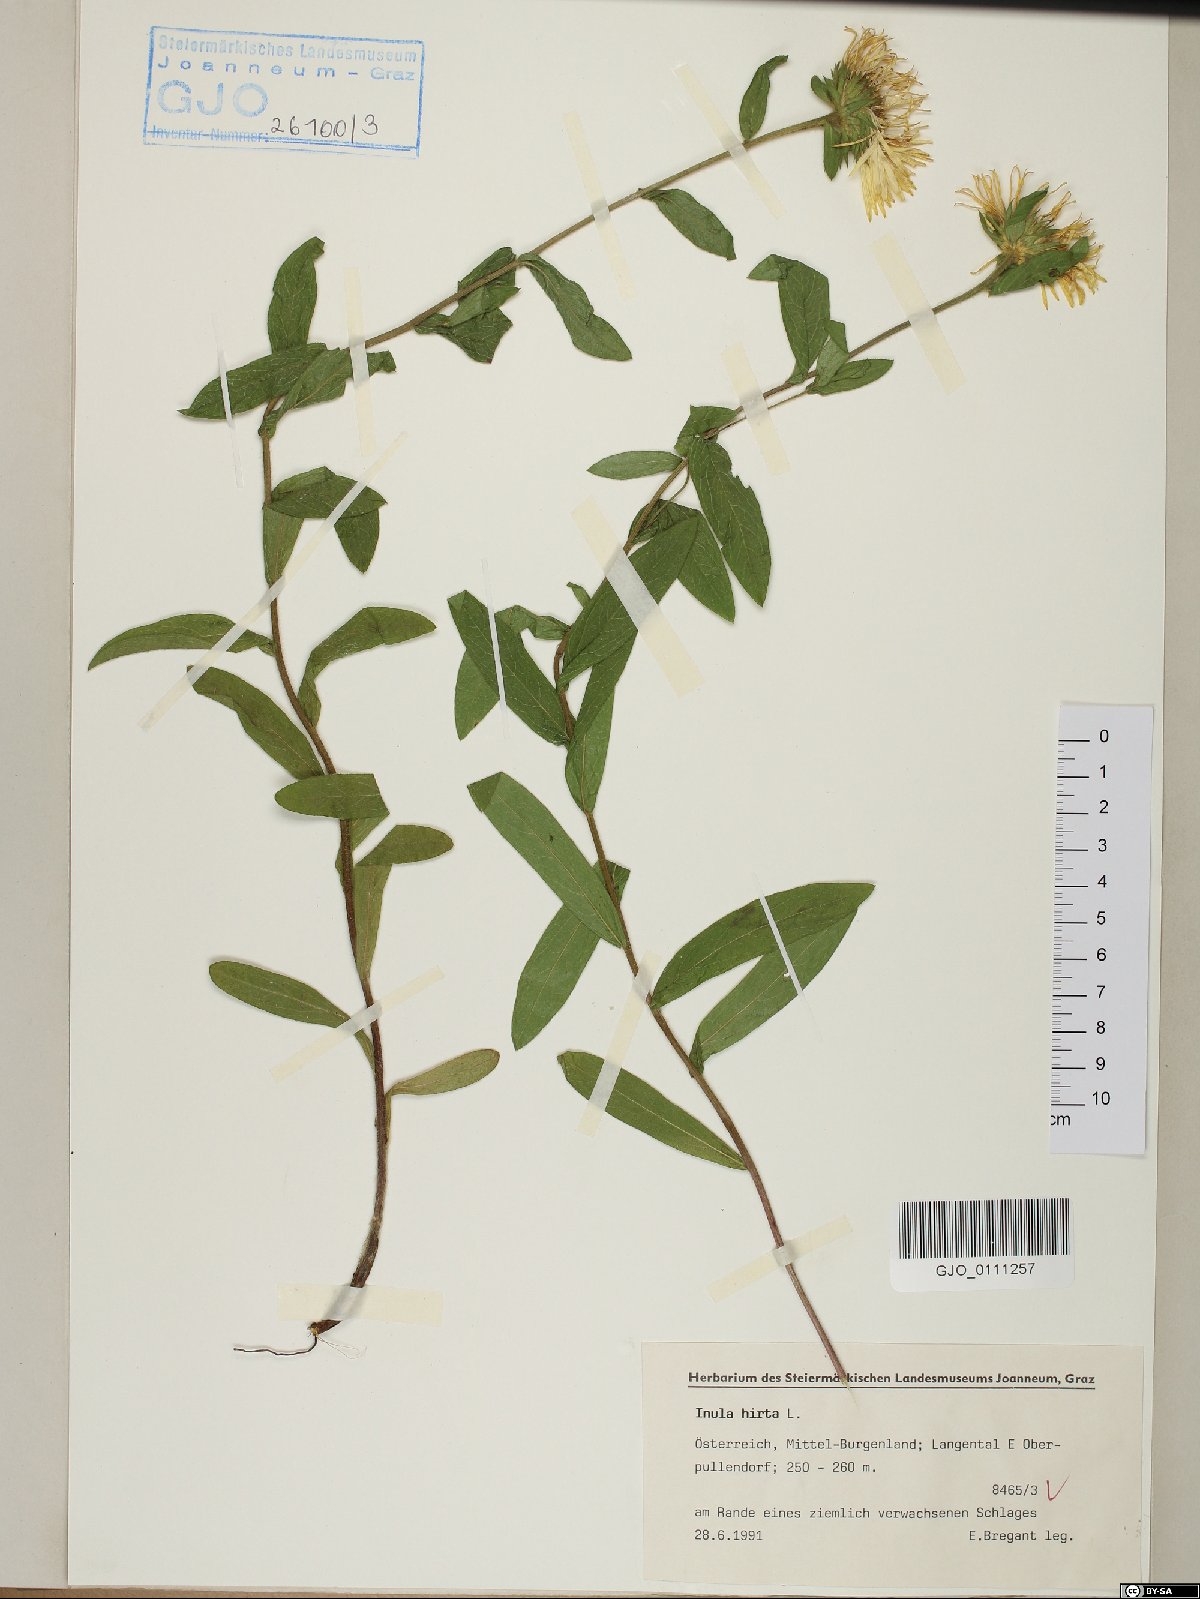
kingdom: Plantae
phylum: Tracheophyta
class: Magnoliopsida
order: Asterales
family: Asteraceae
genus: Pentanema
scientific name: Pentanema hirtum
